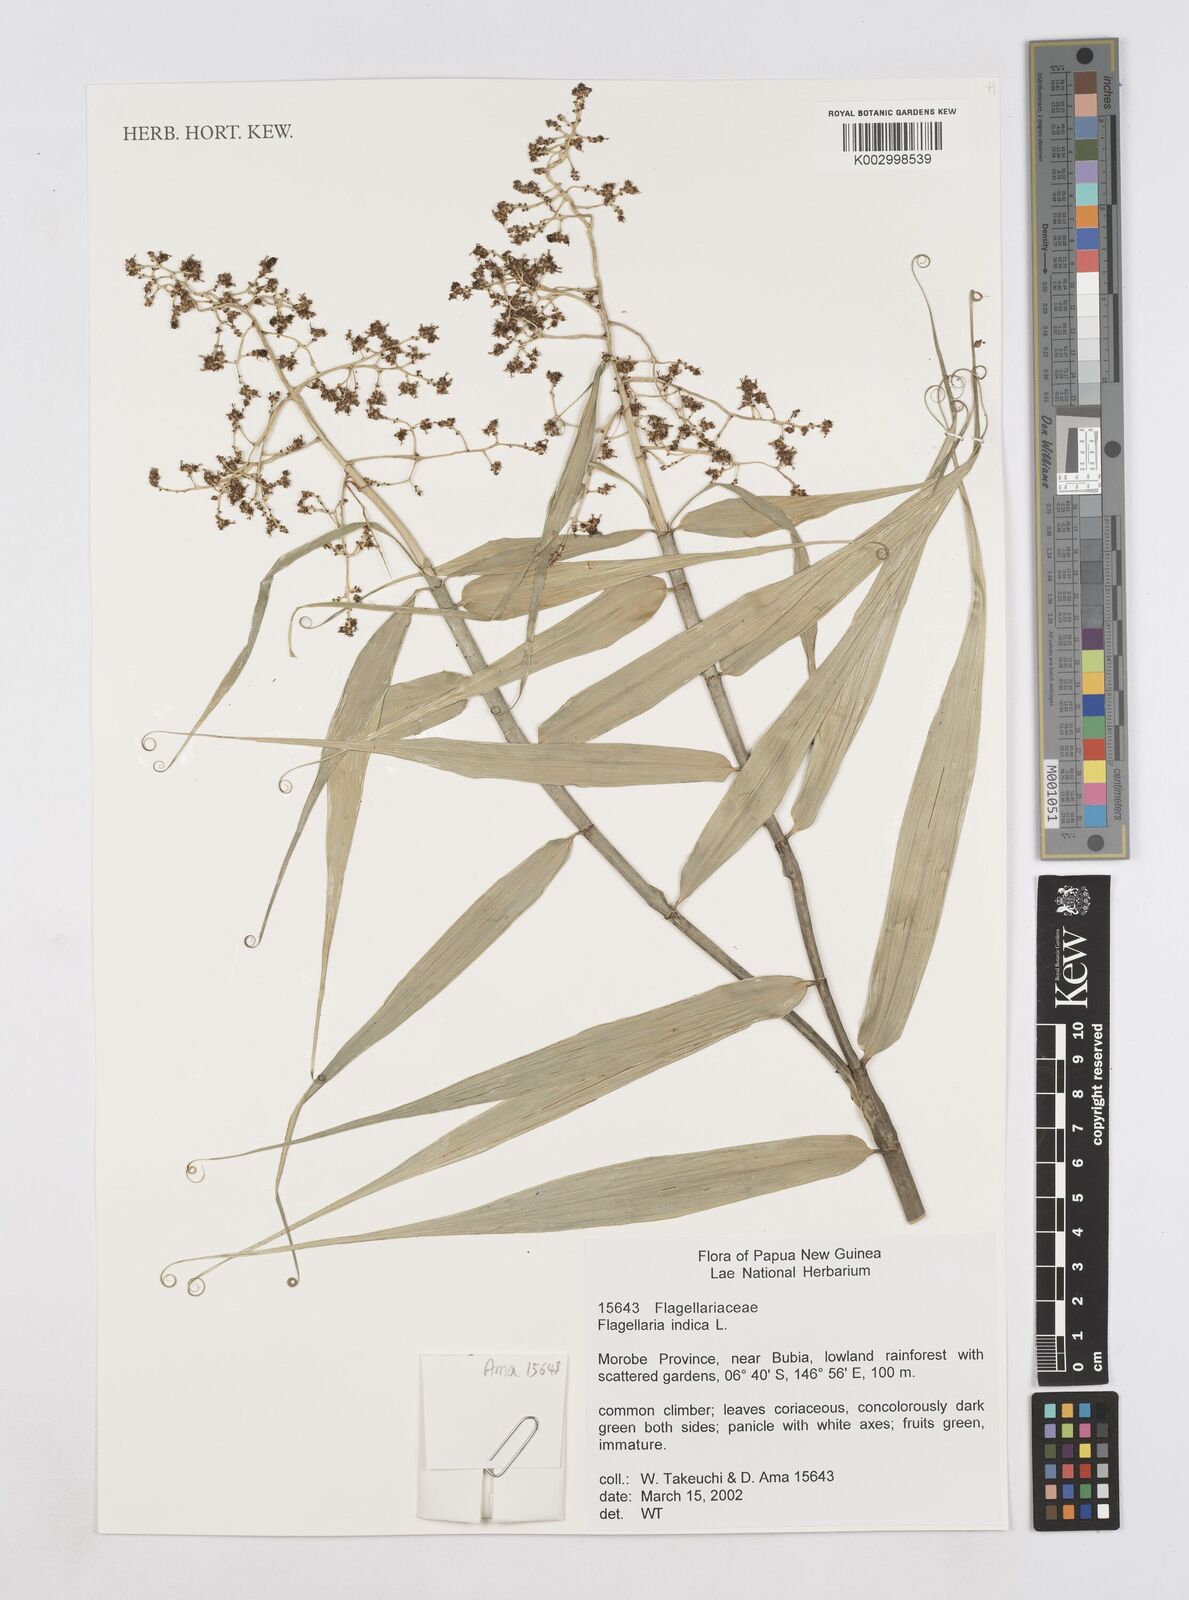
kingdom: Plantae
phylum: Tracheophyta
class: Liliopsida
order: Poales
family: Flagellariaceae
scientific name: Flagellariaceae
